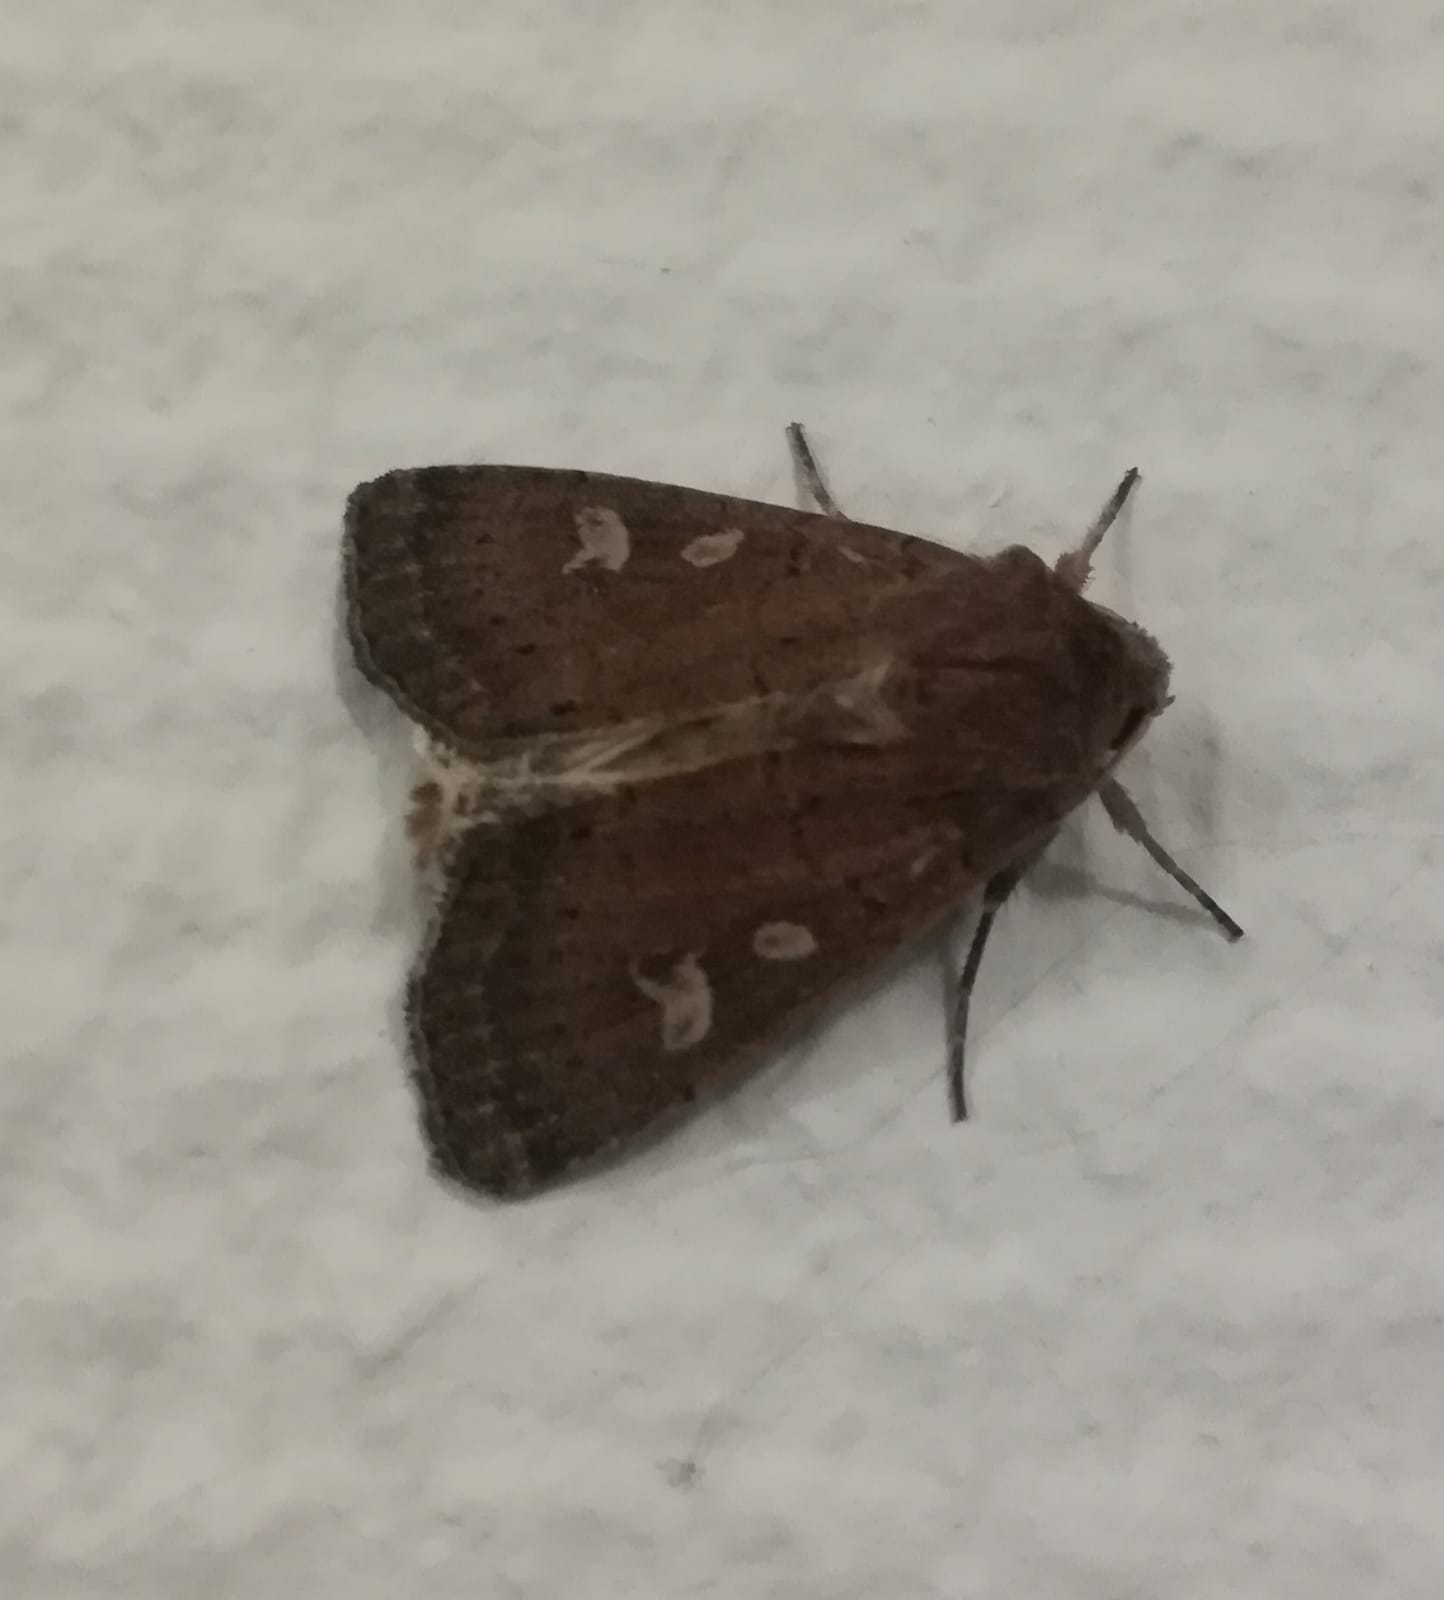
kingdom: Animalia
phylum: Arthropoda
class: Insecta
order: Lepidoptera
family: Noctuidae
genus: Xestia
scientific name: Xestia xanthographa
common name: Gulmærket glansugle
